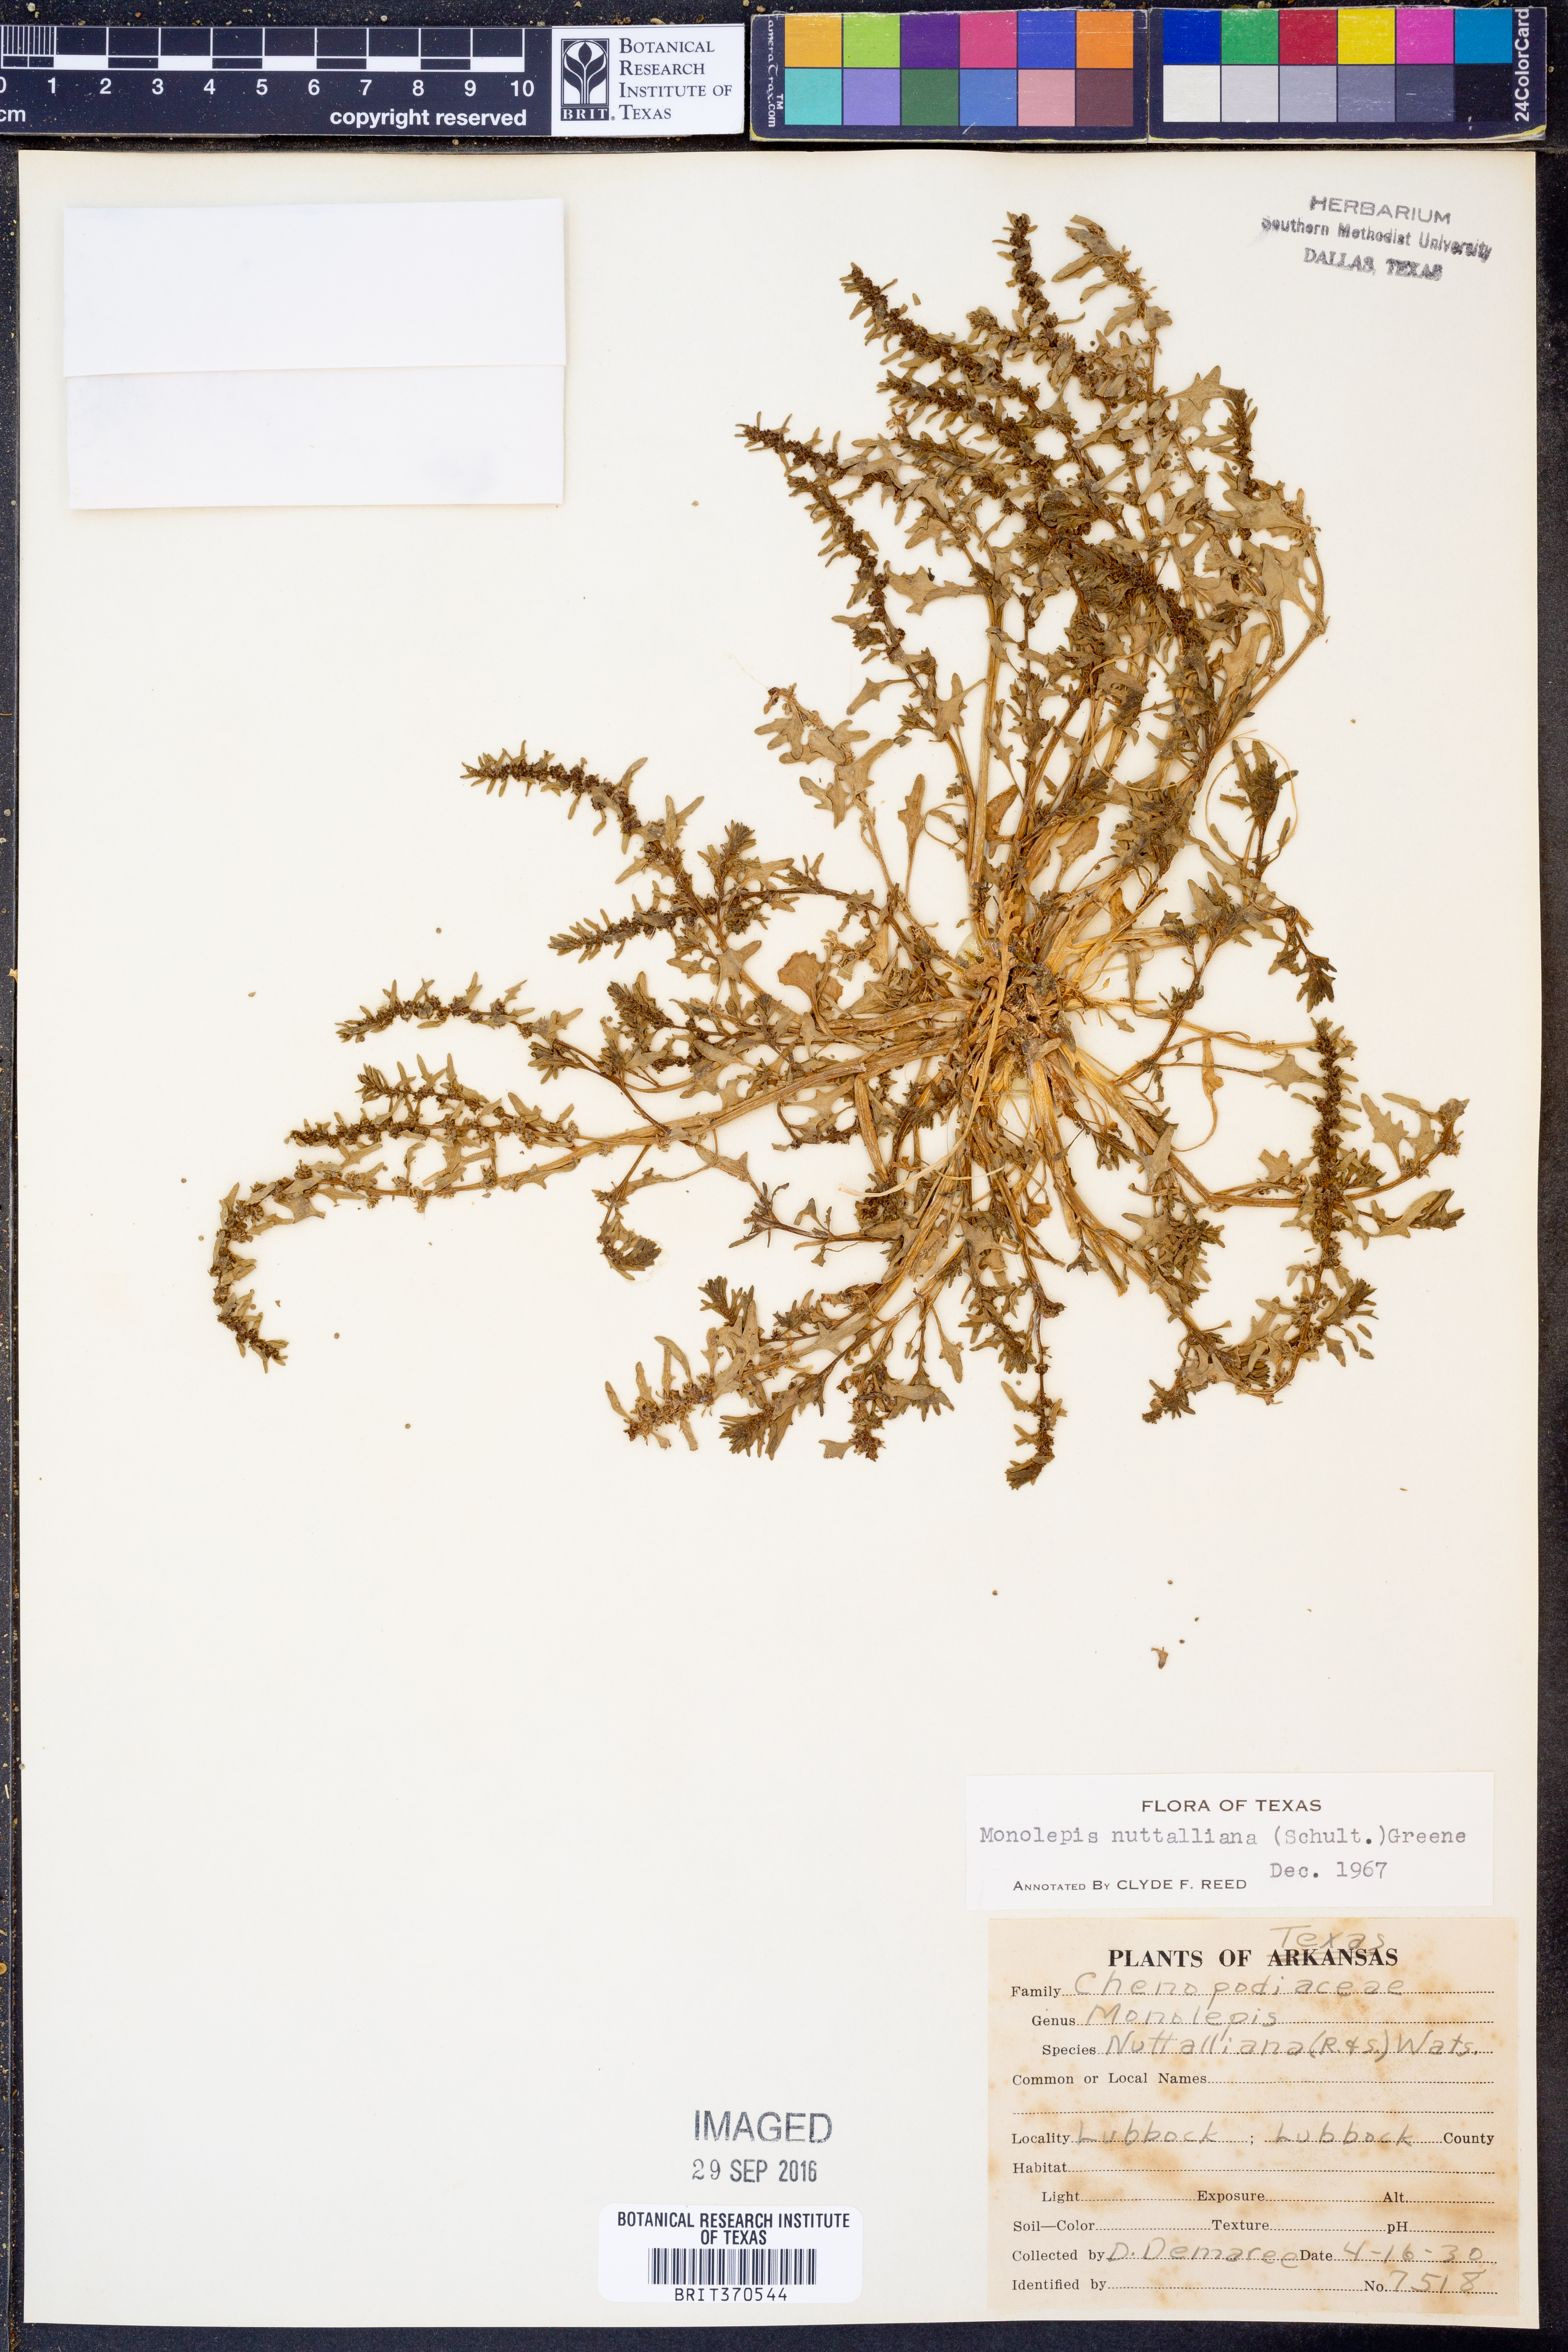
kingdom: Plantae
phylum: Tracheophyta
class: Magnoliopsida
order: Caryophyllales
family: Amaranthaceae
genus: Blitum
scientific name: Blitum nuttallianum
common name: Poverty-weed
